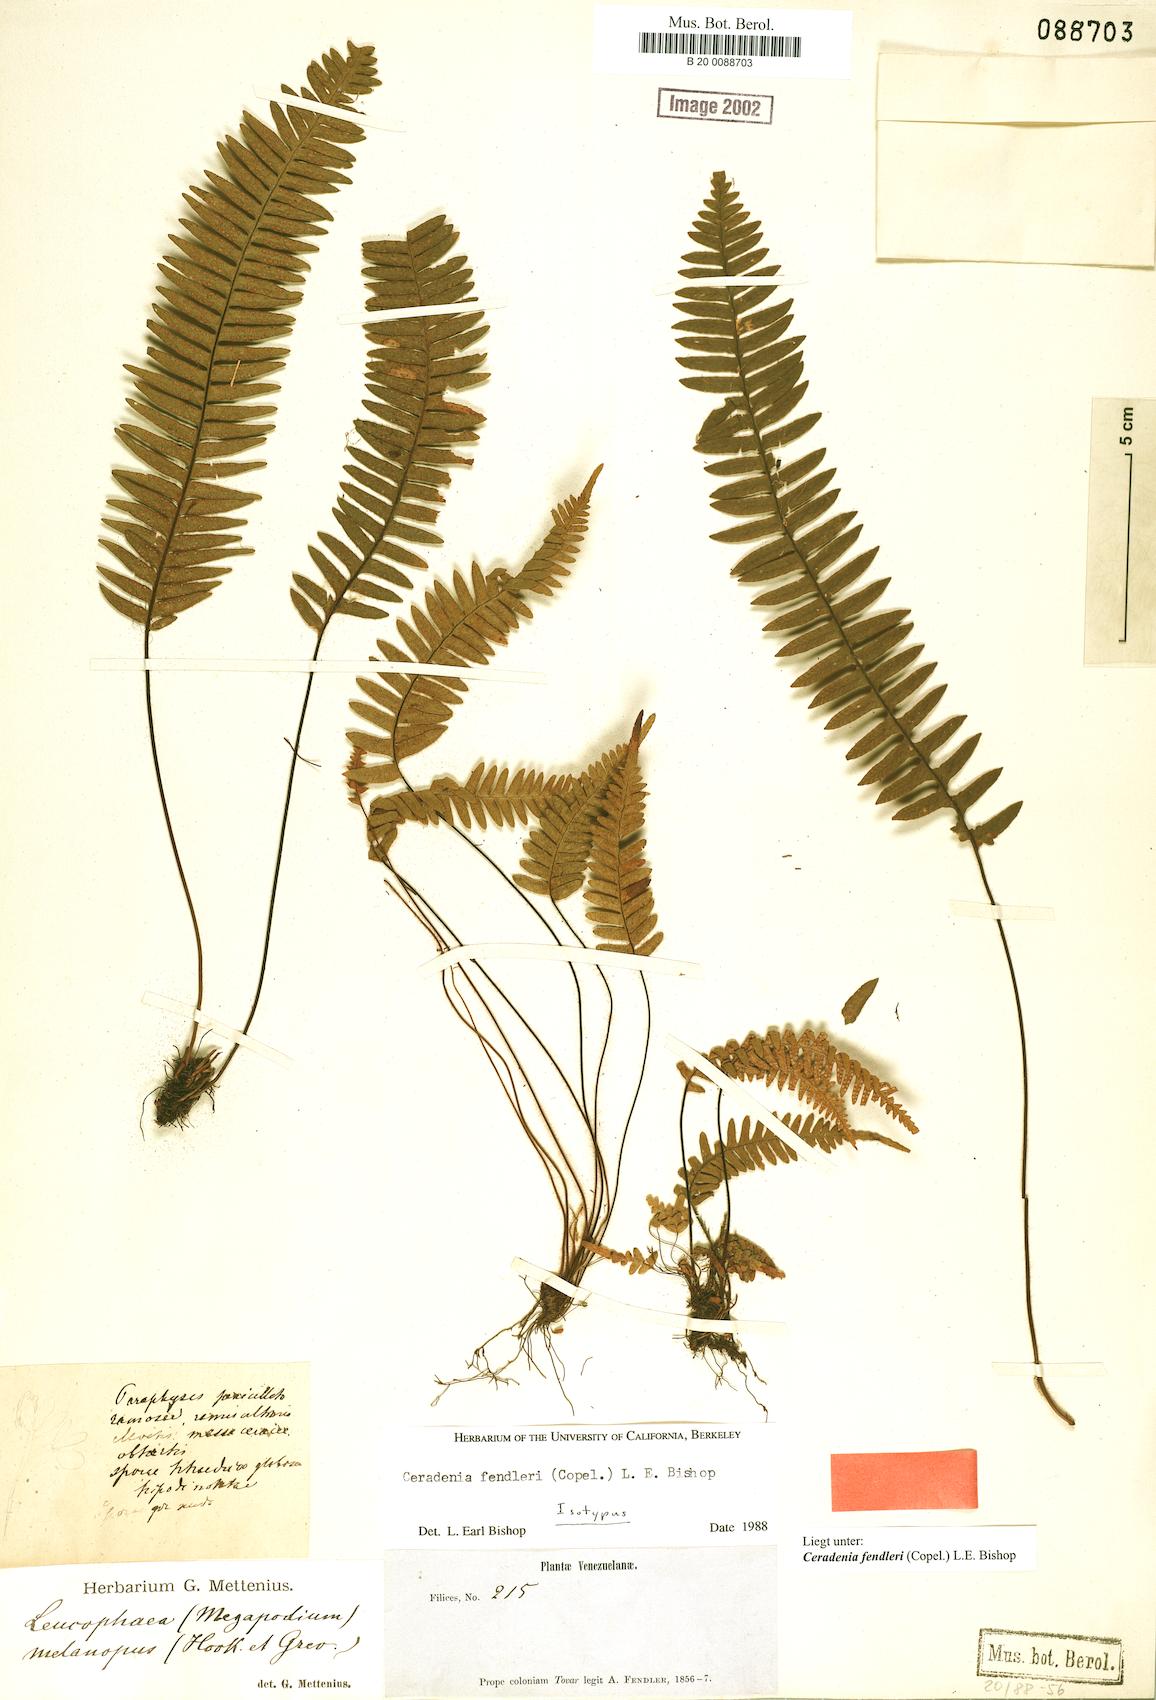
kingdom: Plantae
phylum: Tracheophyta
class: Polypodiopsida
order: Polypodiales
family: Polypodiaceae
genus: Ceradenia
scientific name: Ceradenia fendleri
